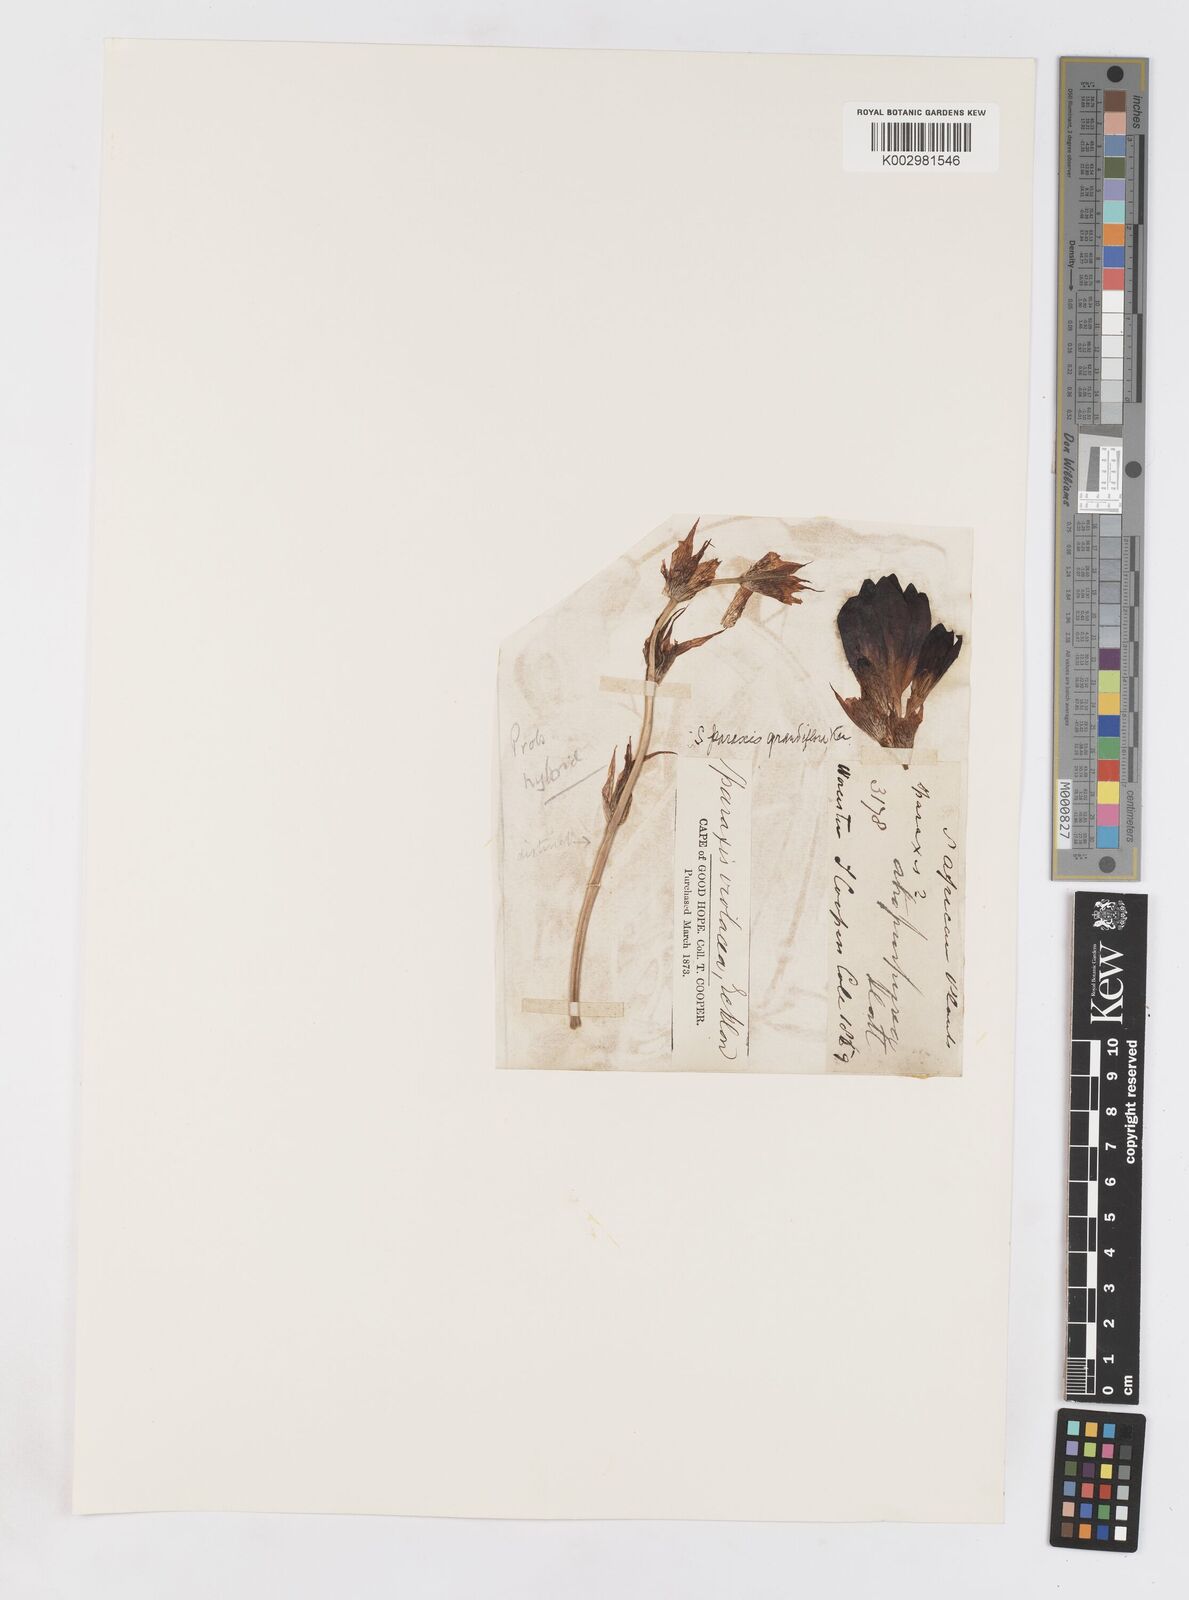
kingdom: Plantae
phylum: Tracheophyta
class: Liliopsida
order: Asparagales
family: Iridaceae
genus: Sparaxis
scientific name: Sparaxis
